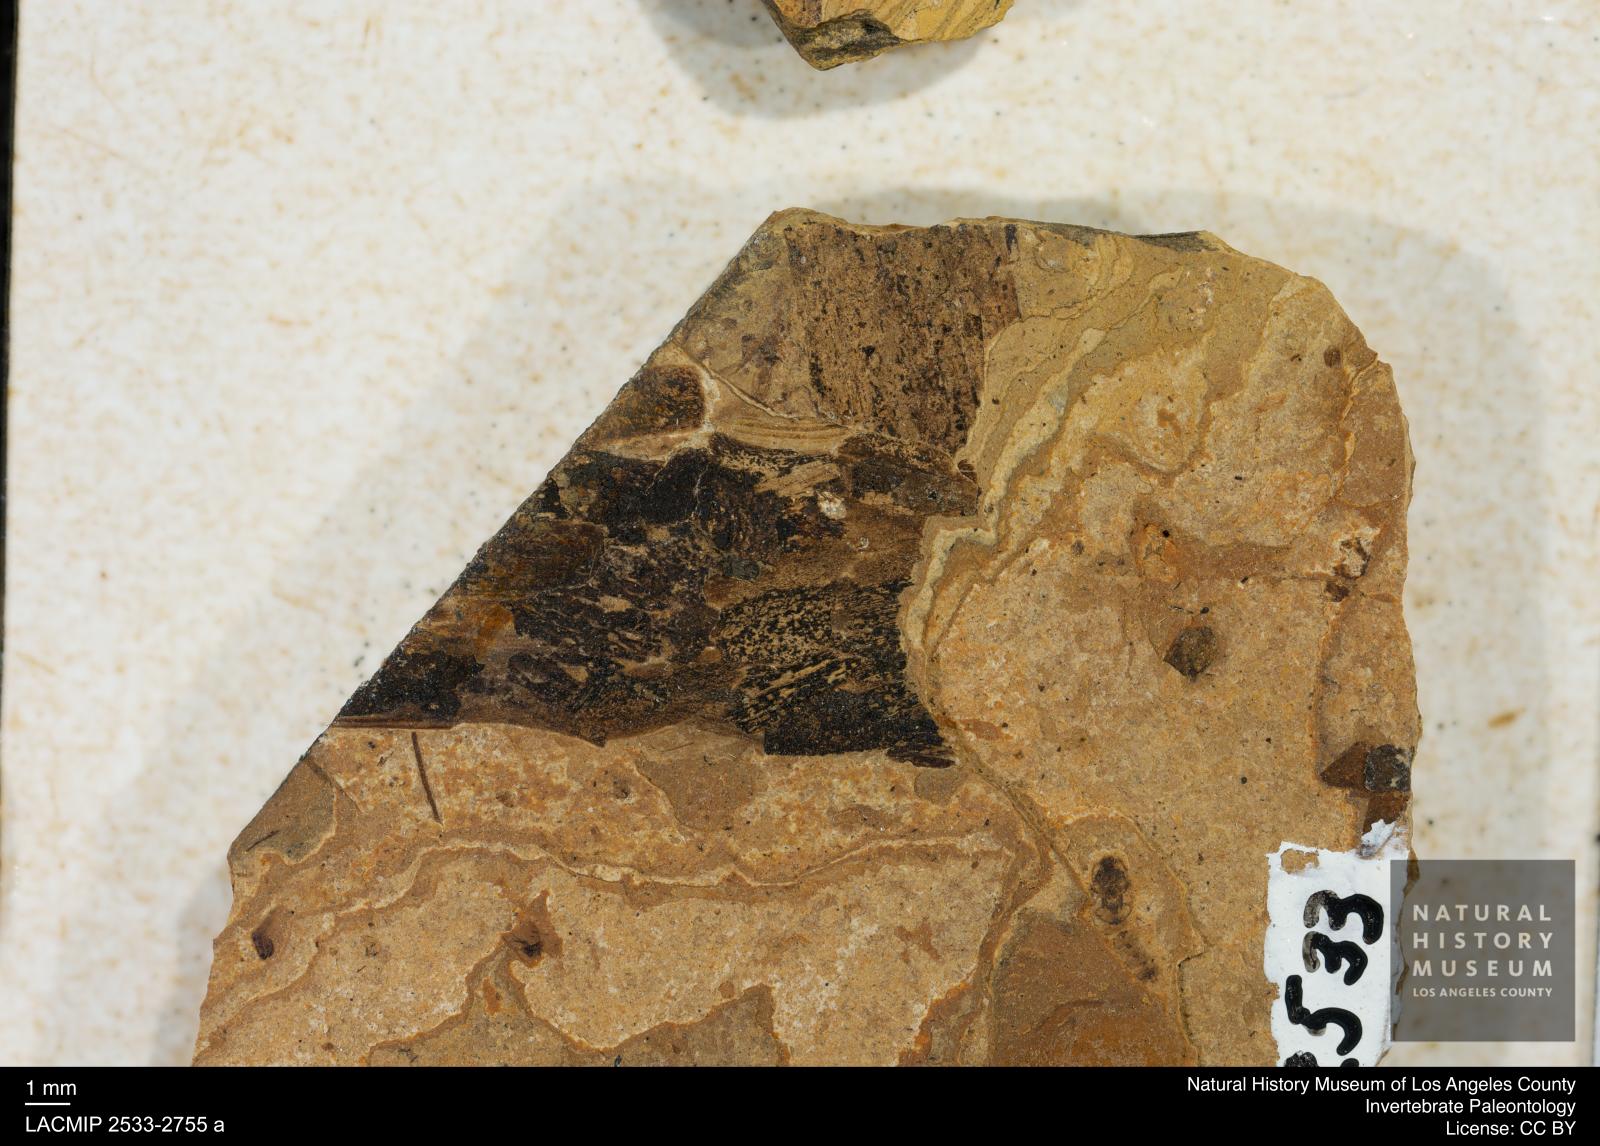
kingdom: Animalia
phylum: Arthropoda
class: Insecta
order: Trichoptera
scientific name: Trichoptera
